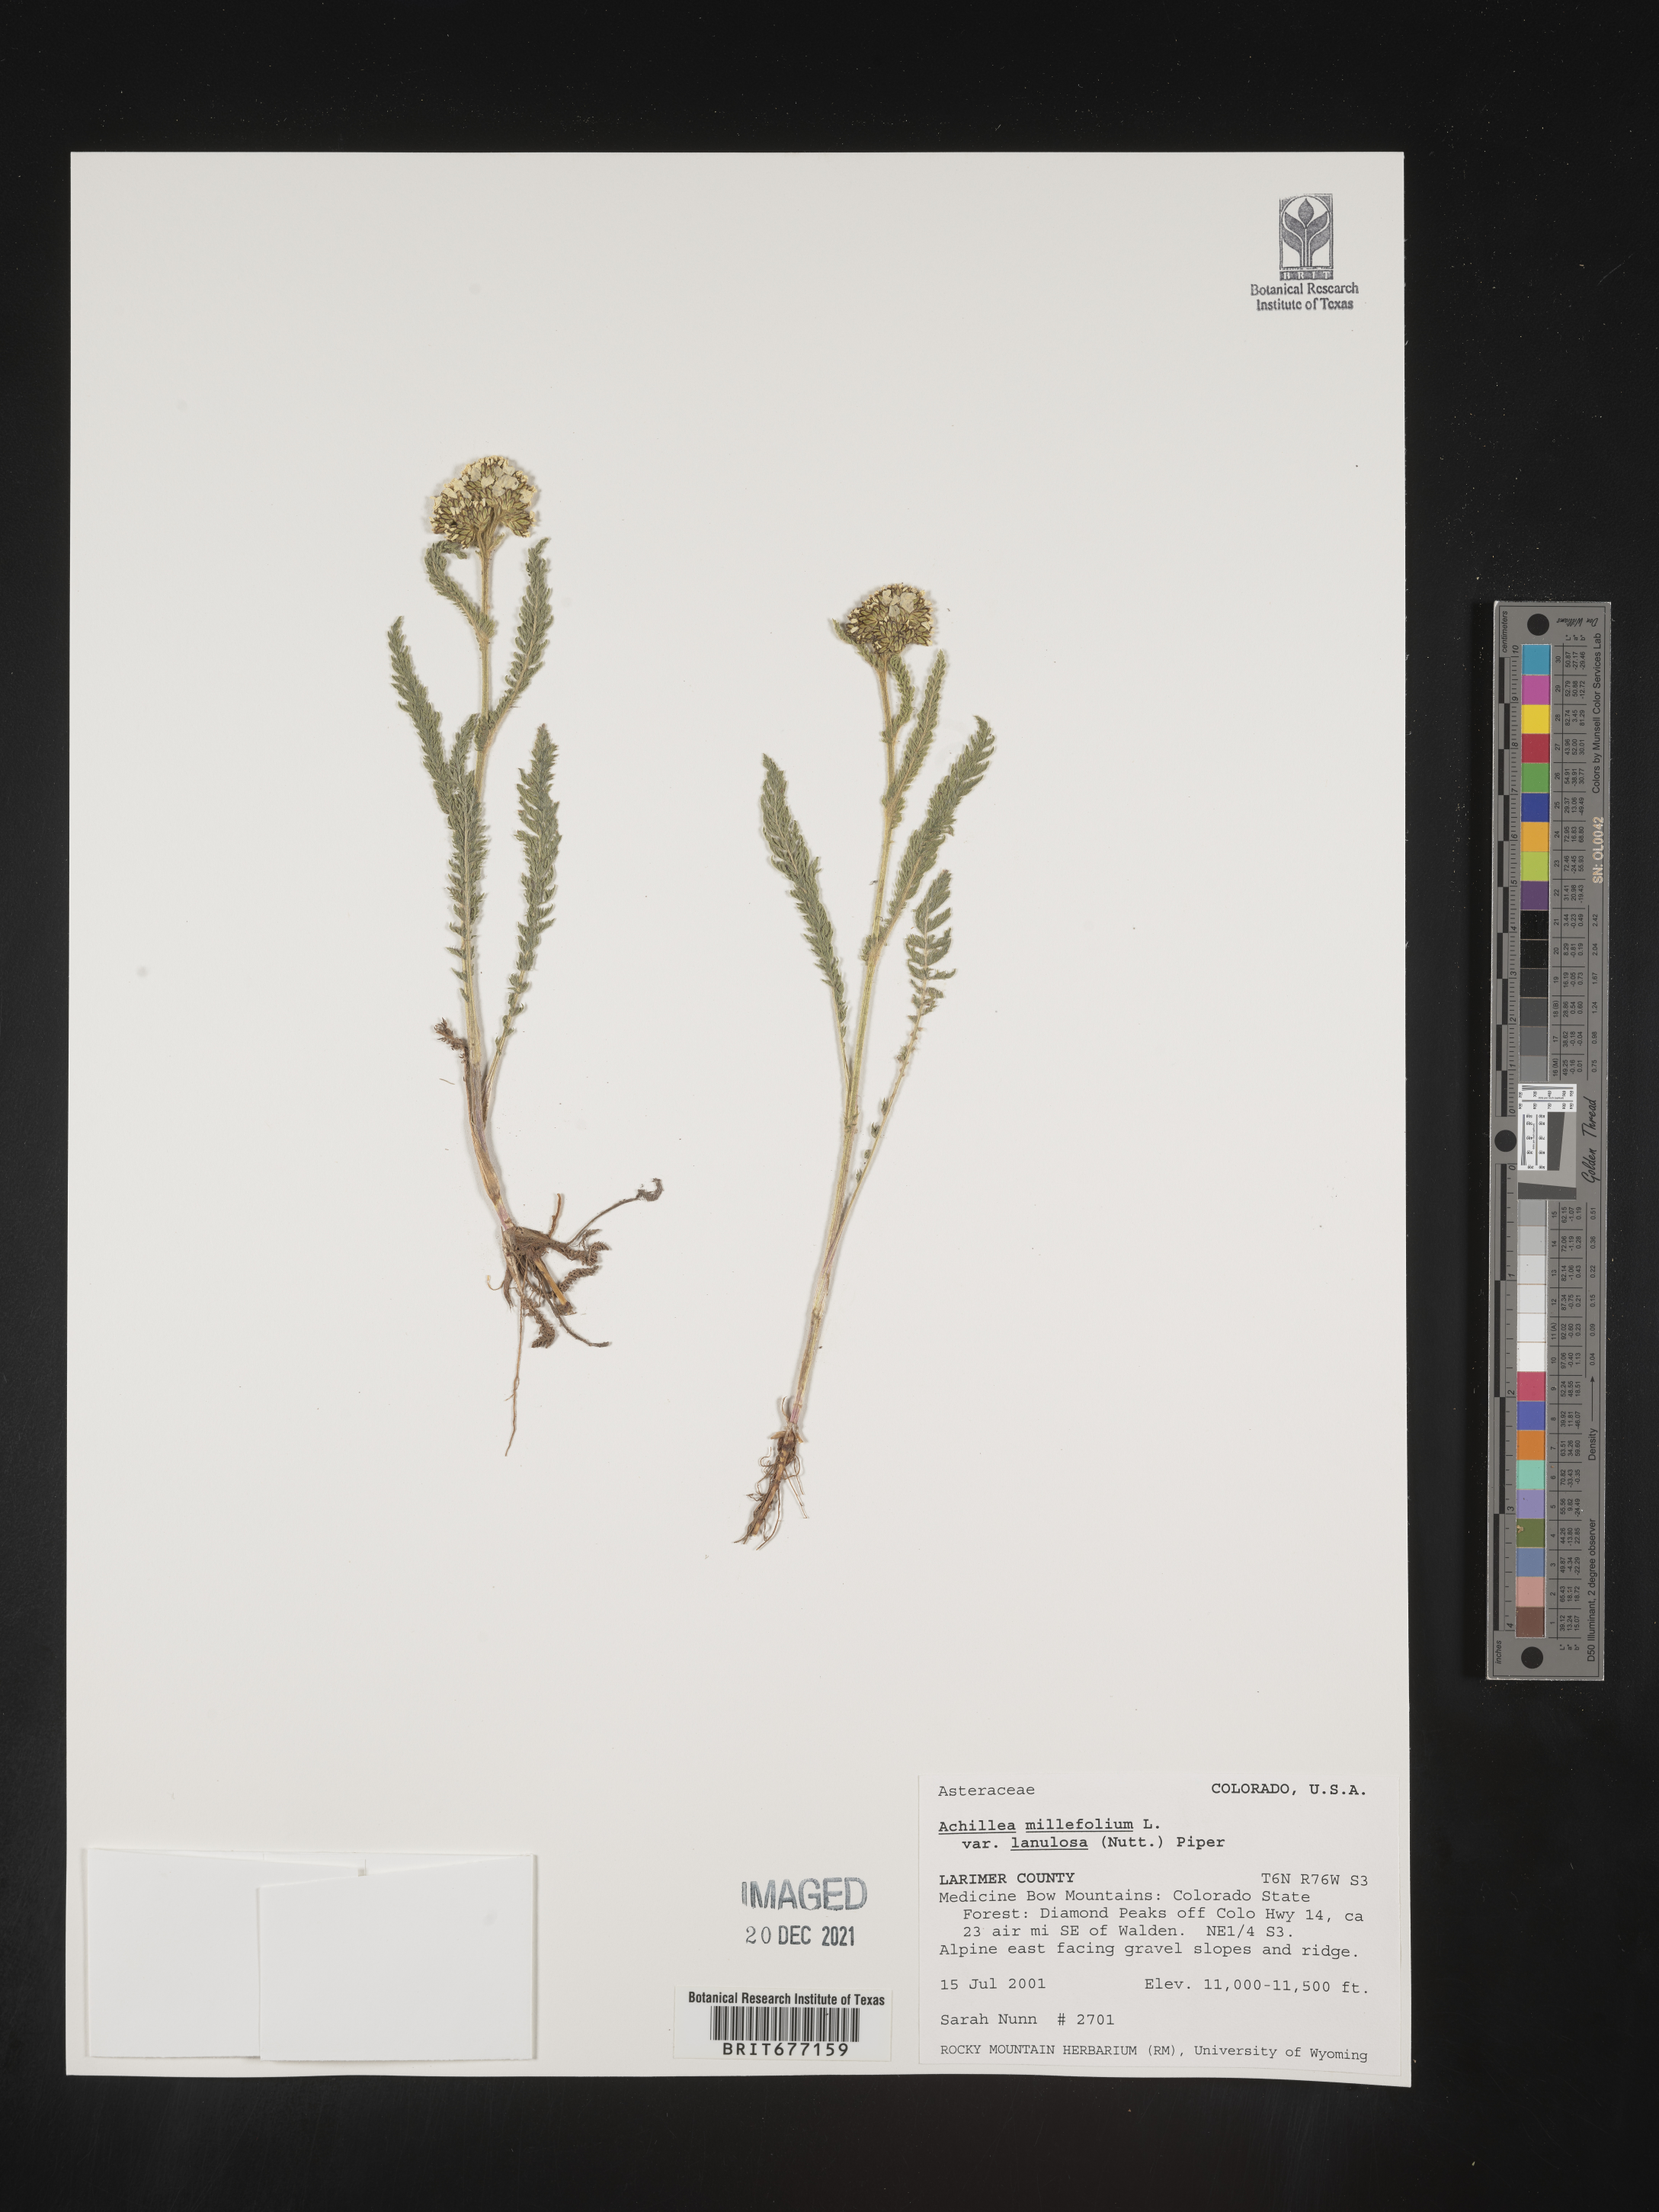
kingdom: Plantae
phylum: Tracheophyta
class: Magnoliopsida
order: Asterales
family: Asteraceae
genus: Achillea
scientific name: Achillea millefolium
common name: Yarrow
